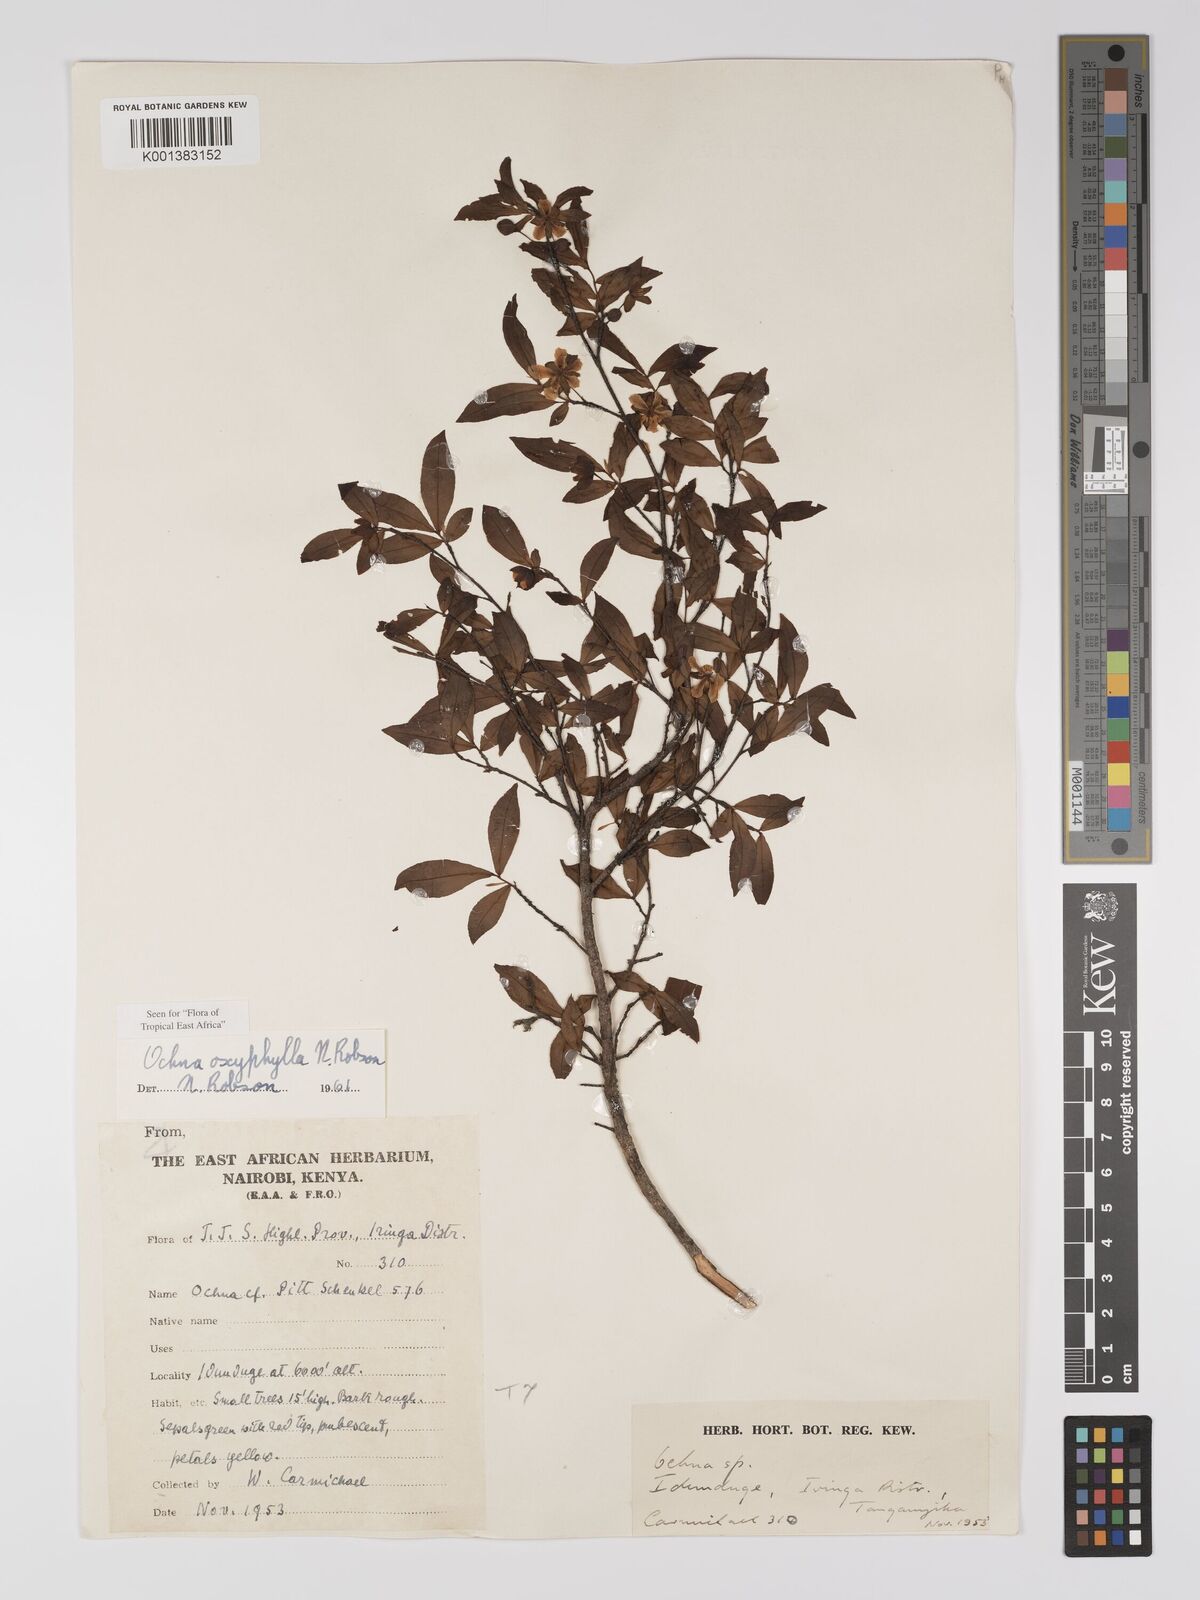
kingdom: Plantae
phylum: Tracheophyta
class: Magnoliopsida
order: Malpighiales
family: Ochnaceae
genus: Ochna
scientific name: Ochna oxyphylla
